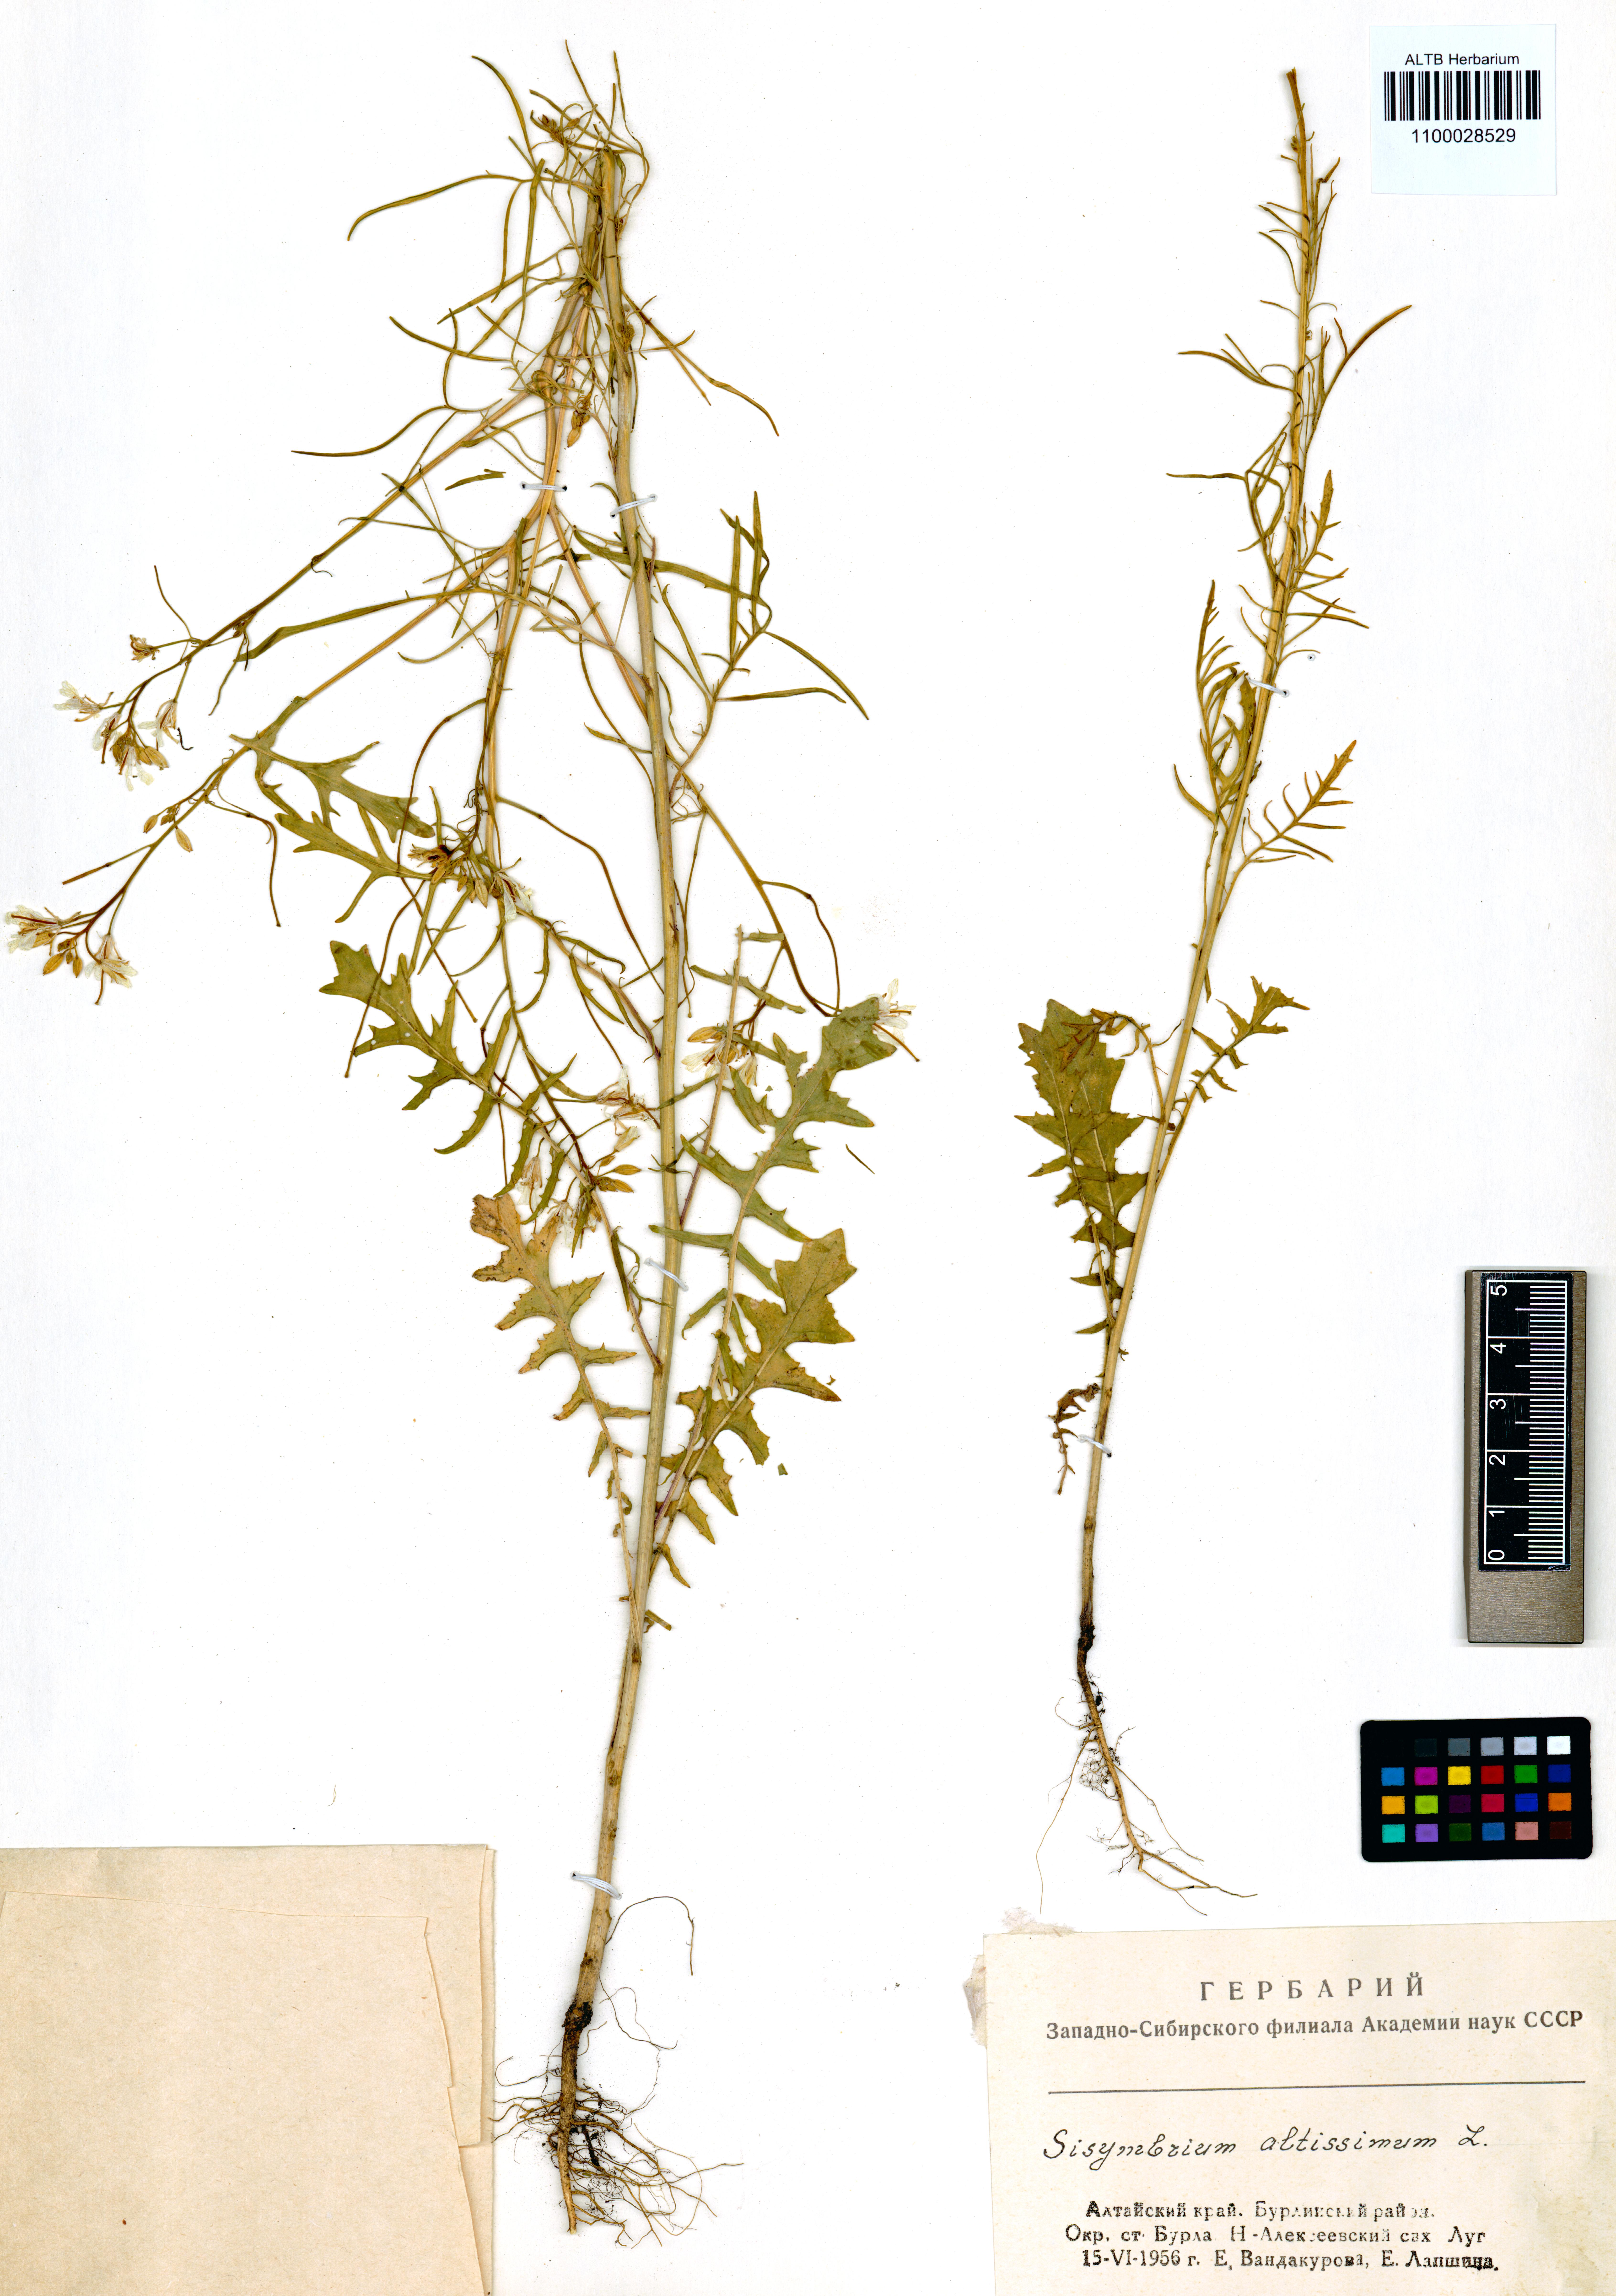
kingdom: Plantae
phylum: Tracheophyta
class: Magnoliopsida
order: Brassicales
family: Brassicaceae
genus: Sisymbrium
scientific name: Sisymbrium altissimum
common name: Tall rocket
